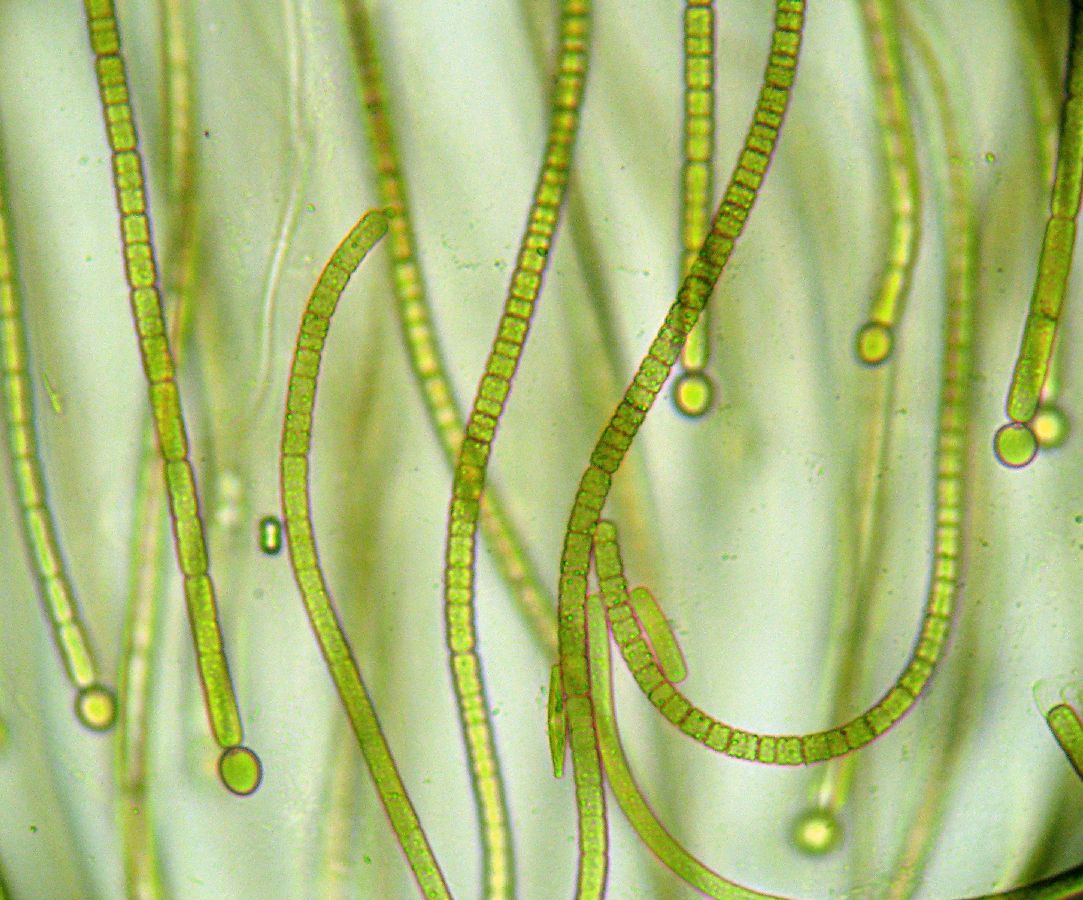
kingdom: Bacteria
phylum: Cyanobacteria
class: Cyanobacteriia
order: Cyanobacteriales
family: Aphanizomenonaceae
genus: Gloeotrichia
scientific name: Gloeotrichia
